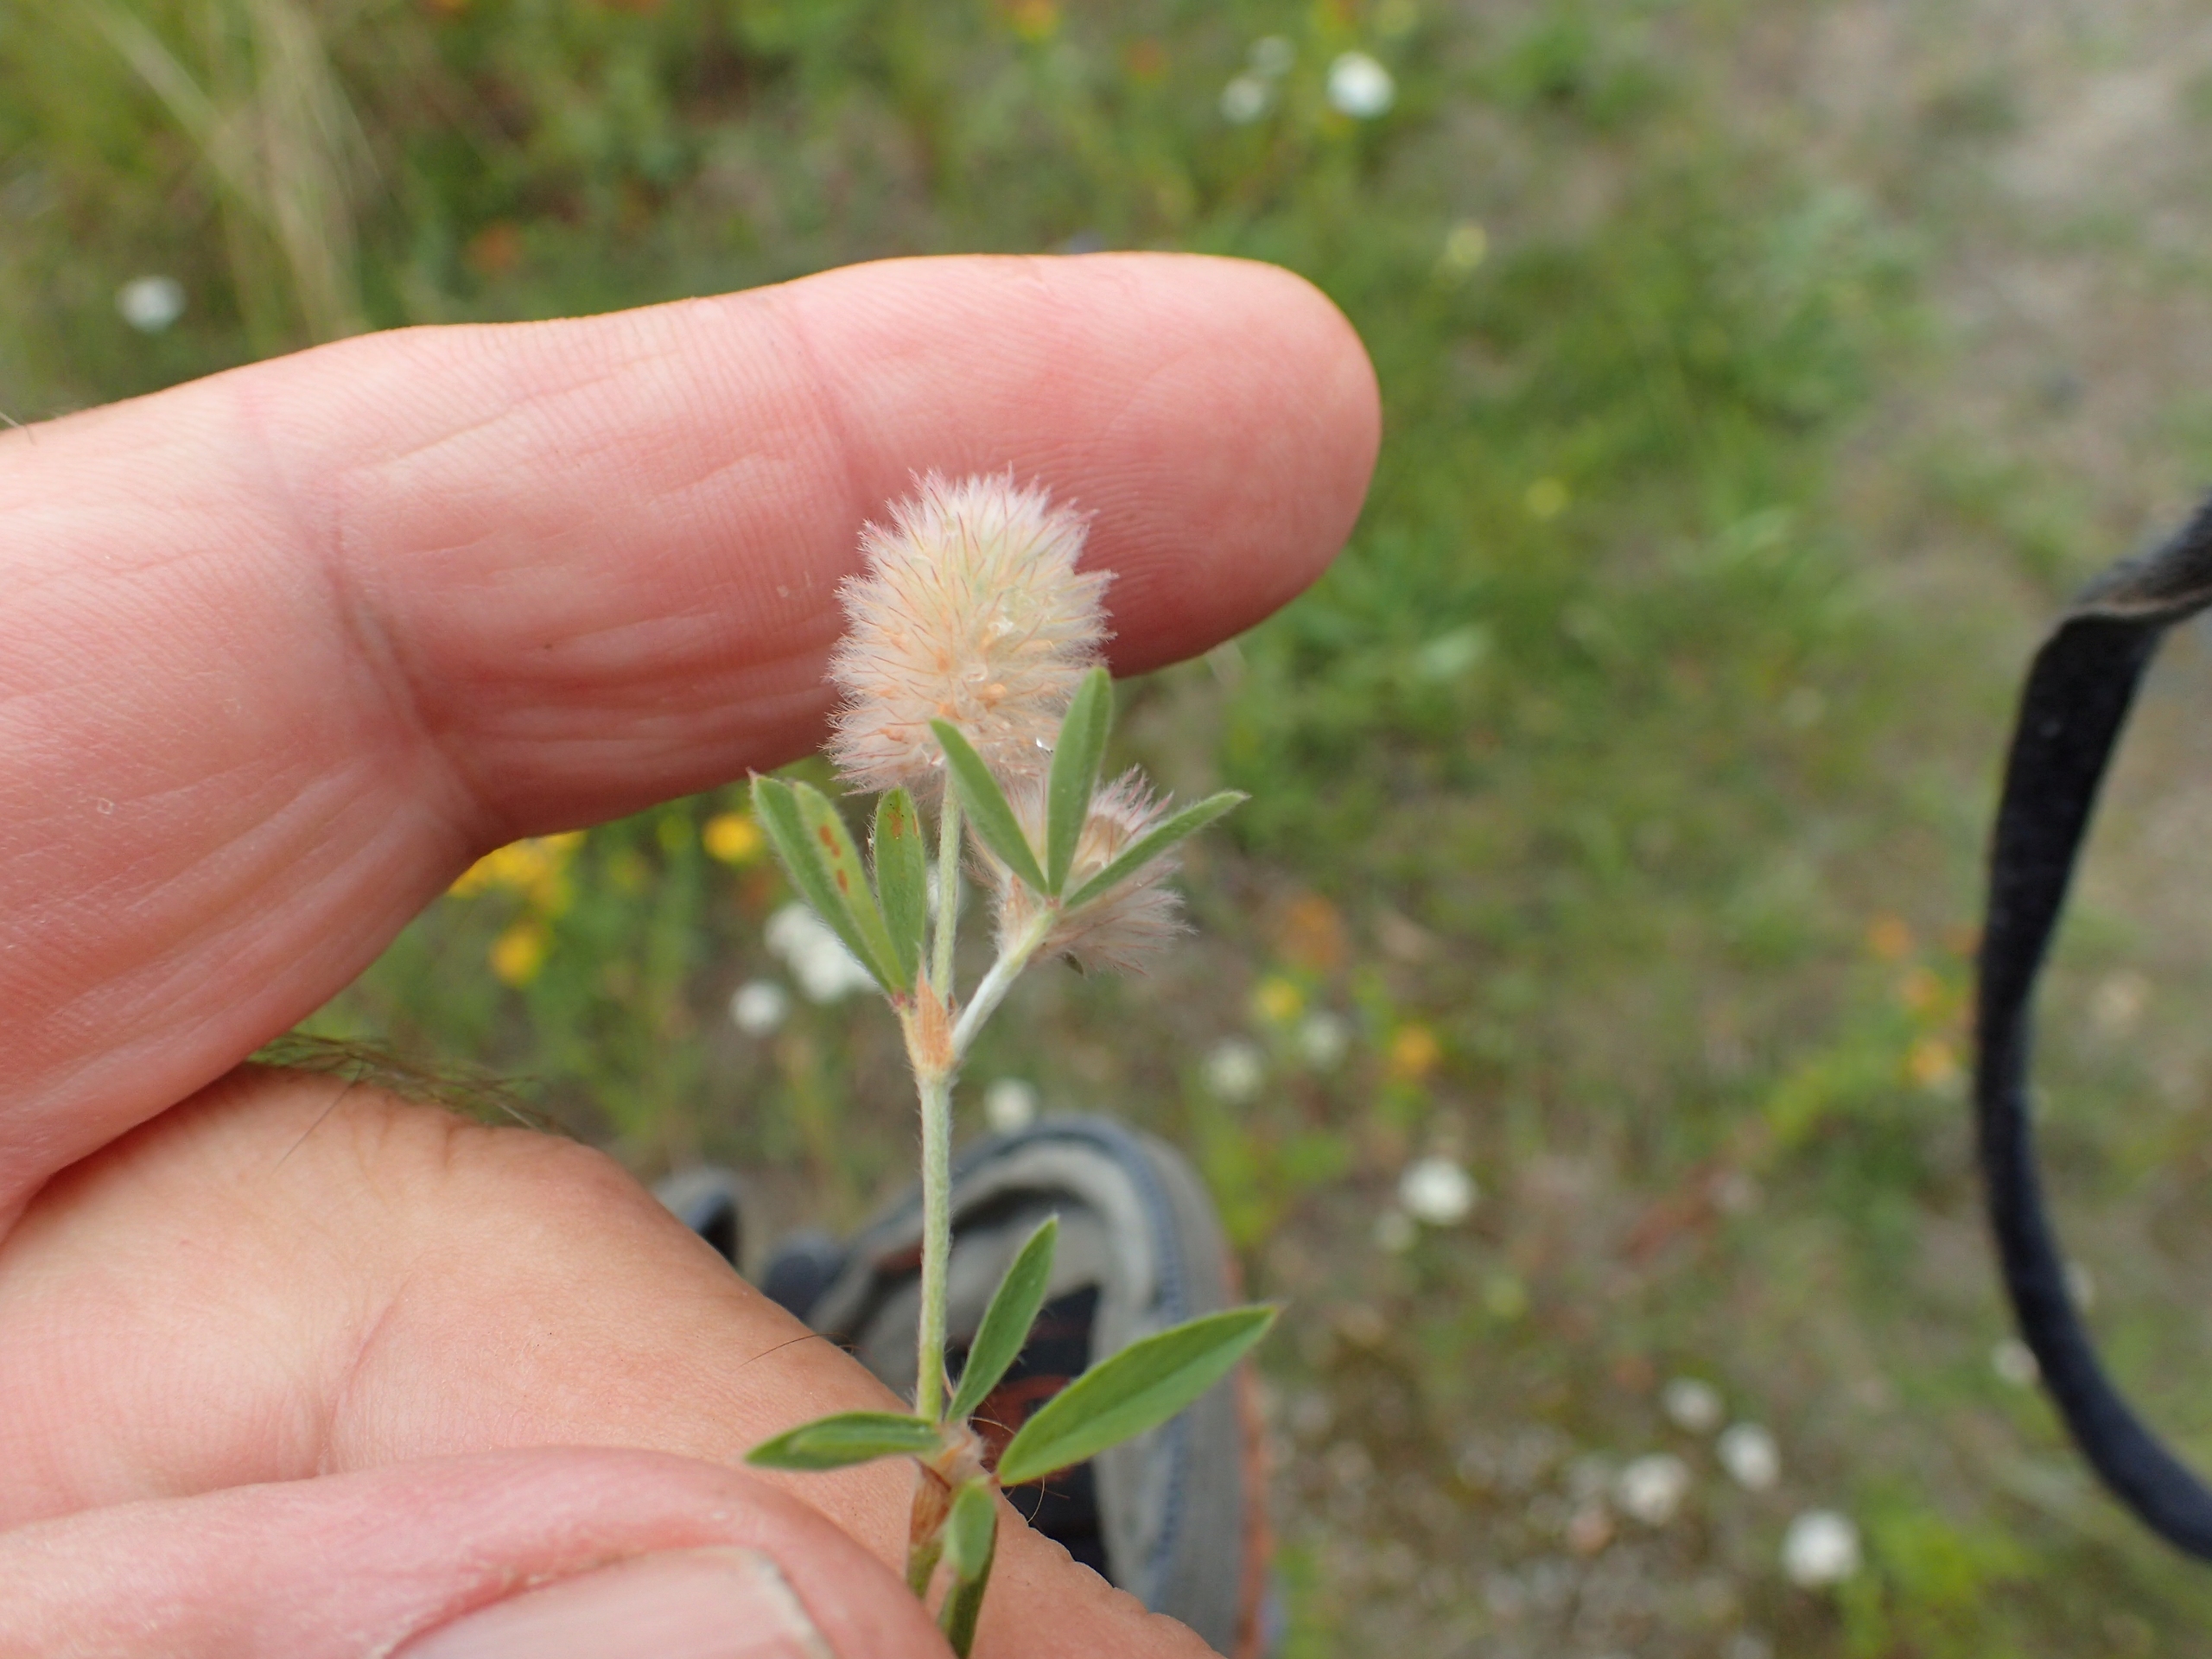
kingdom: Plantae
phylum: Tracheophyta
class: Magnoliopsida
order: Fabales
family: Fabaceae
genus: Trifolium
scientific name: Trifolium arvense
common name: Hare-kløver
